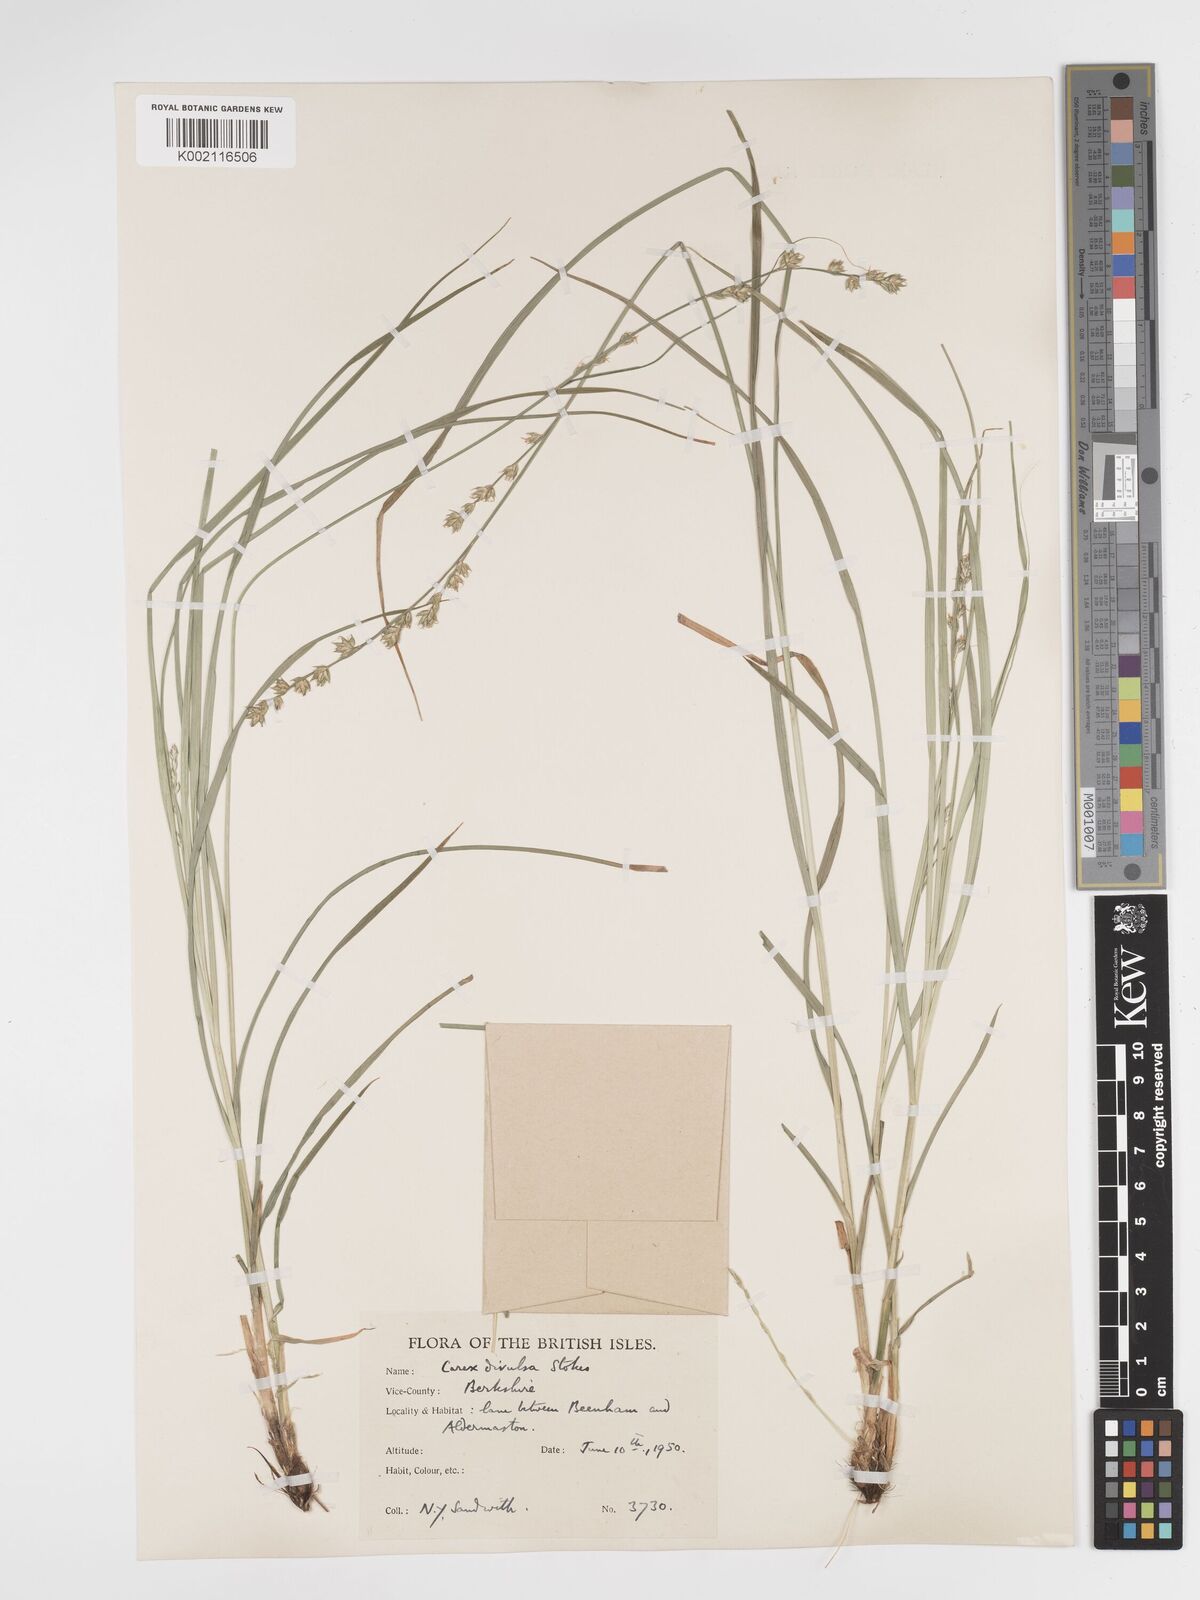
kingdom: Plantae
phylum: Tracheophyta
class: Liliopsida
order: Poales
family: Cyperaceae
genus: Carex
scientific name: Carex divulsa
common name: Grassland sedge
